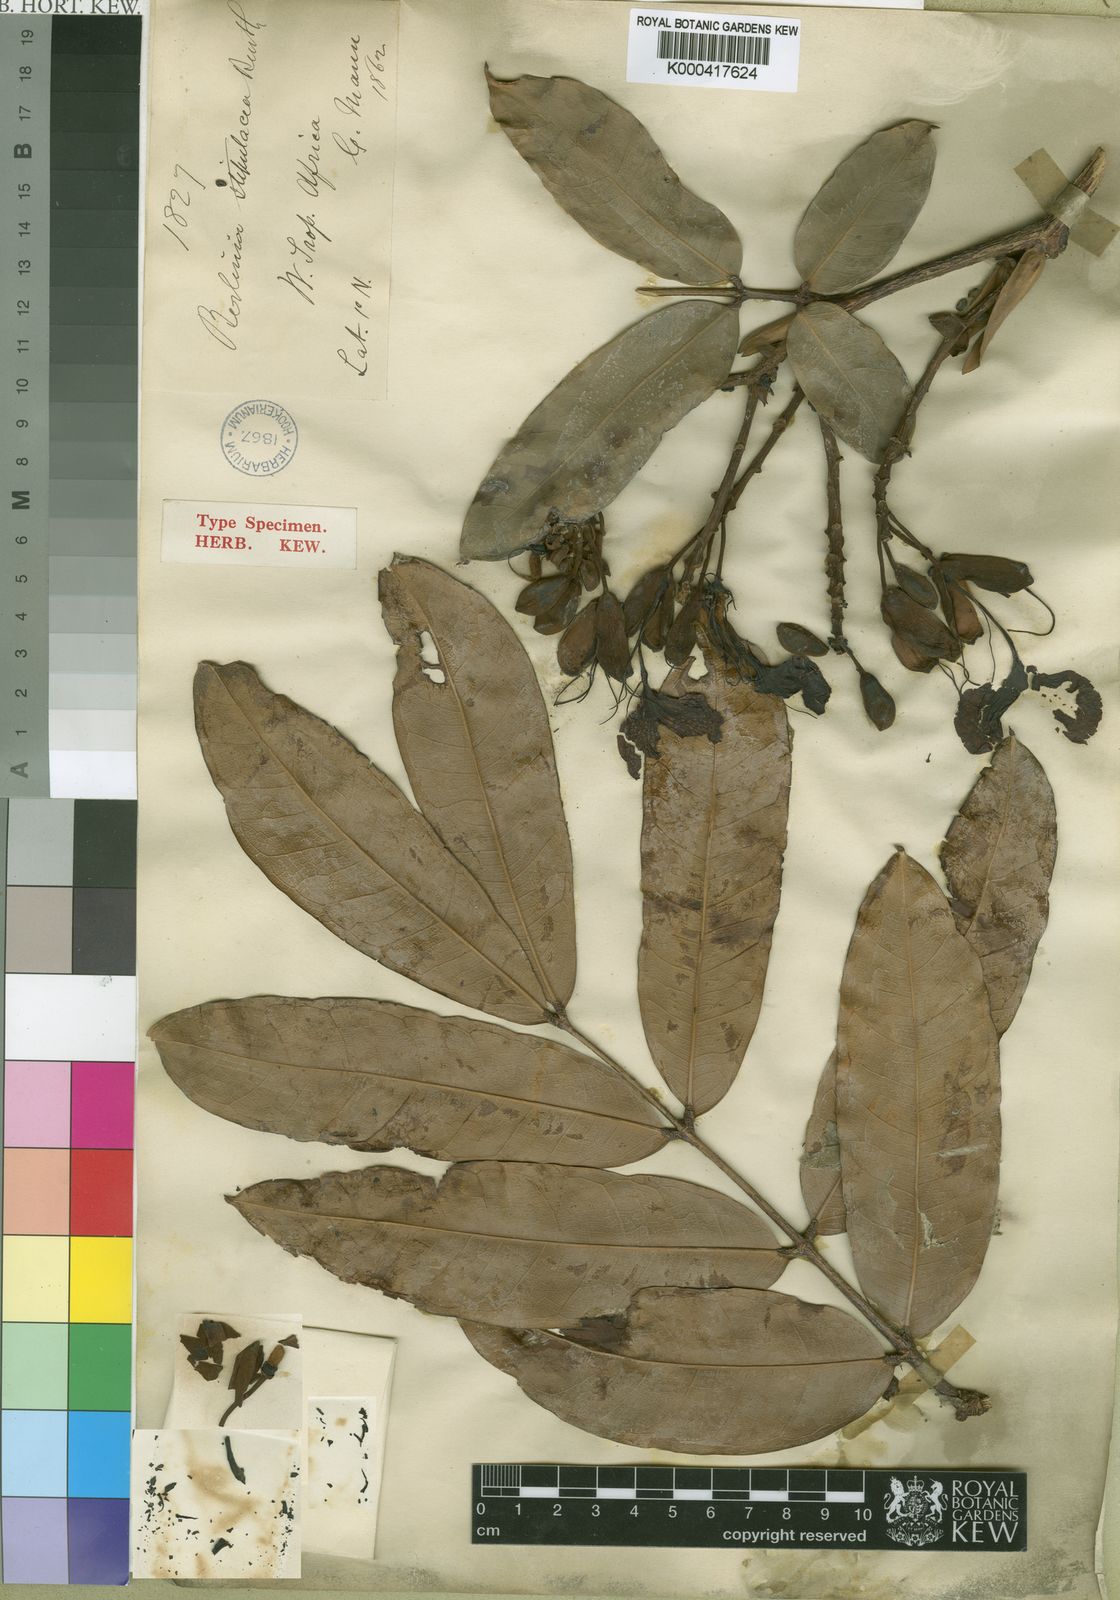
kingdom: Plantae
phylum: Tracheophyta
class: Magnoliopsida
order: Fabales
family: Fabaceae
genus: Gilbertiodendron
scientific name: Gilbertiodendron
